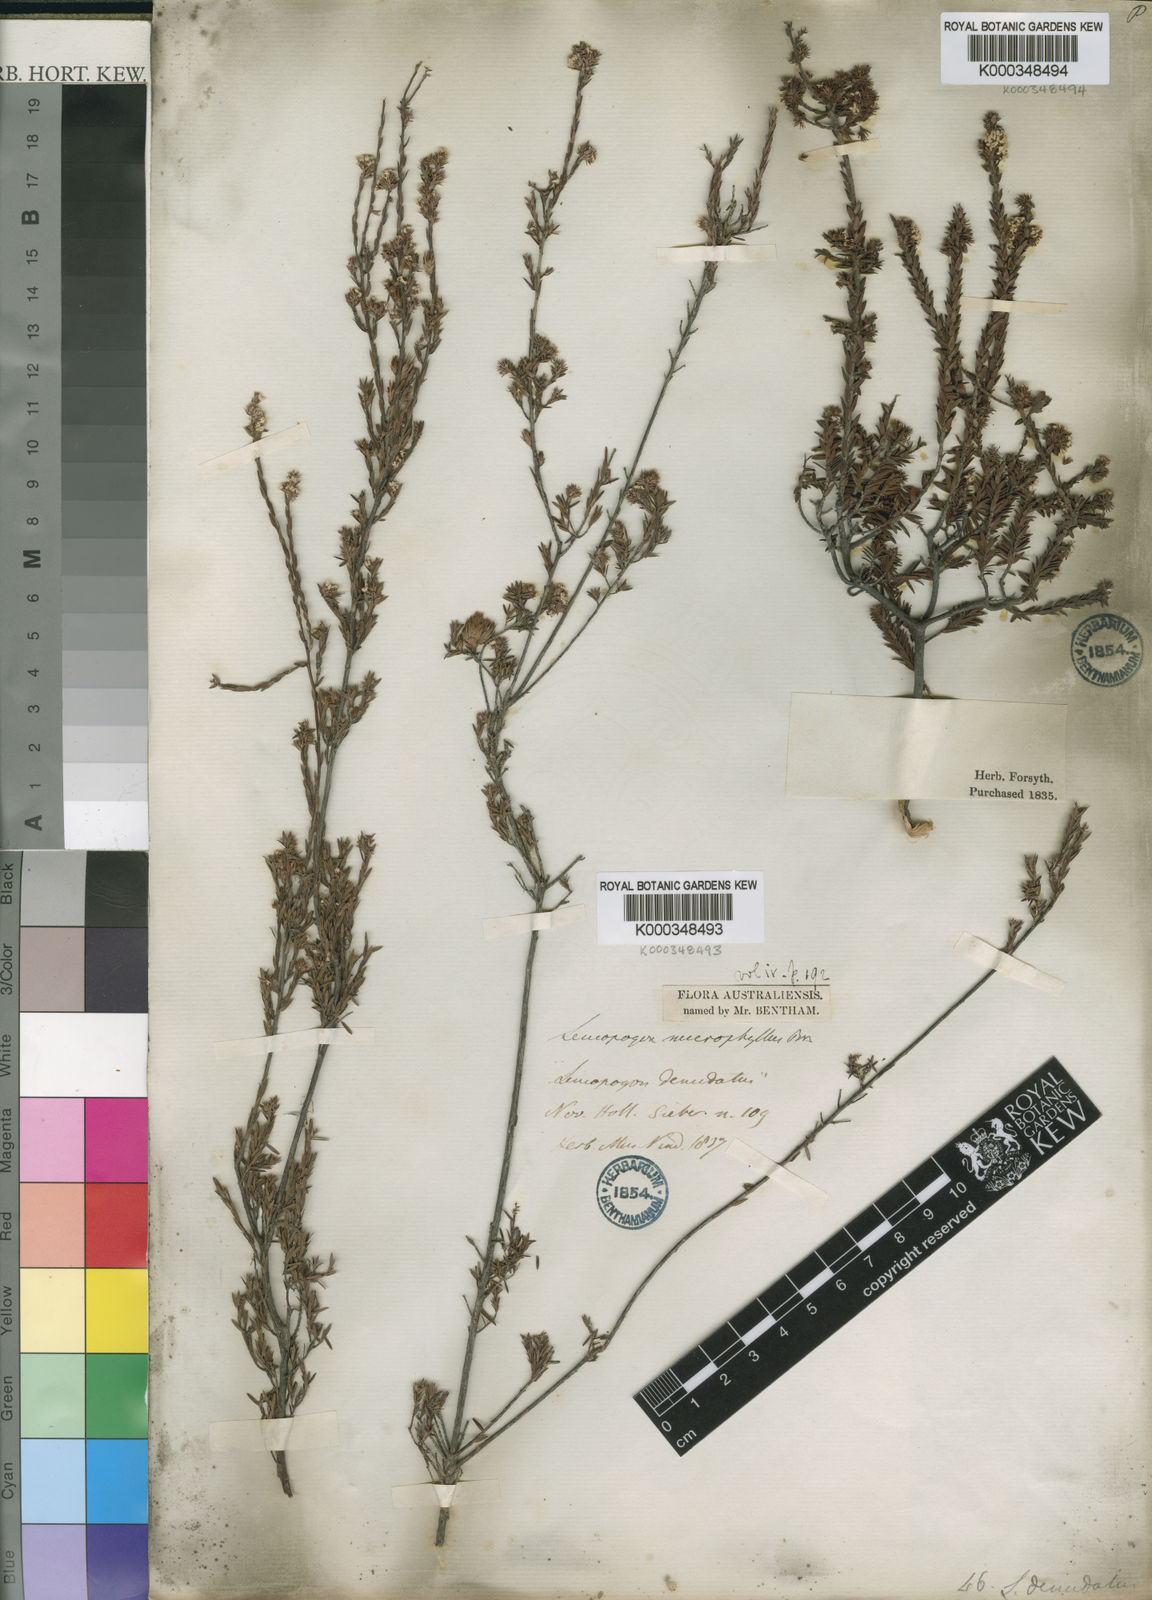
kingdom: Plantae
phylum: Tracheophyta
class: Magnoliopsida
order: Ericales
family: Ericaceae
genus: Leucopogon
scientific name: Leucopogon microphyllus
